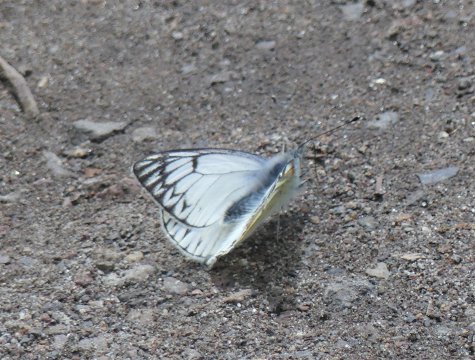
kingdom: Animalia
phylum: Arthropoda
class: Insecta
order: Lepidoptera
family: Pieridae
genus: Tatochila
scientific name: Tatochila mercedis
